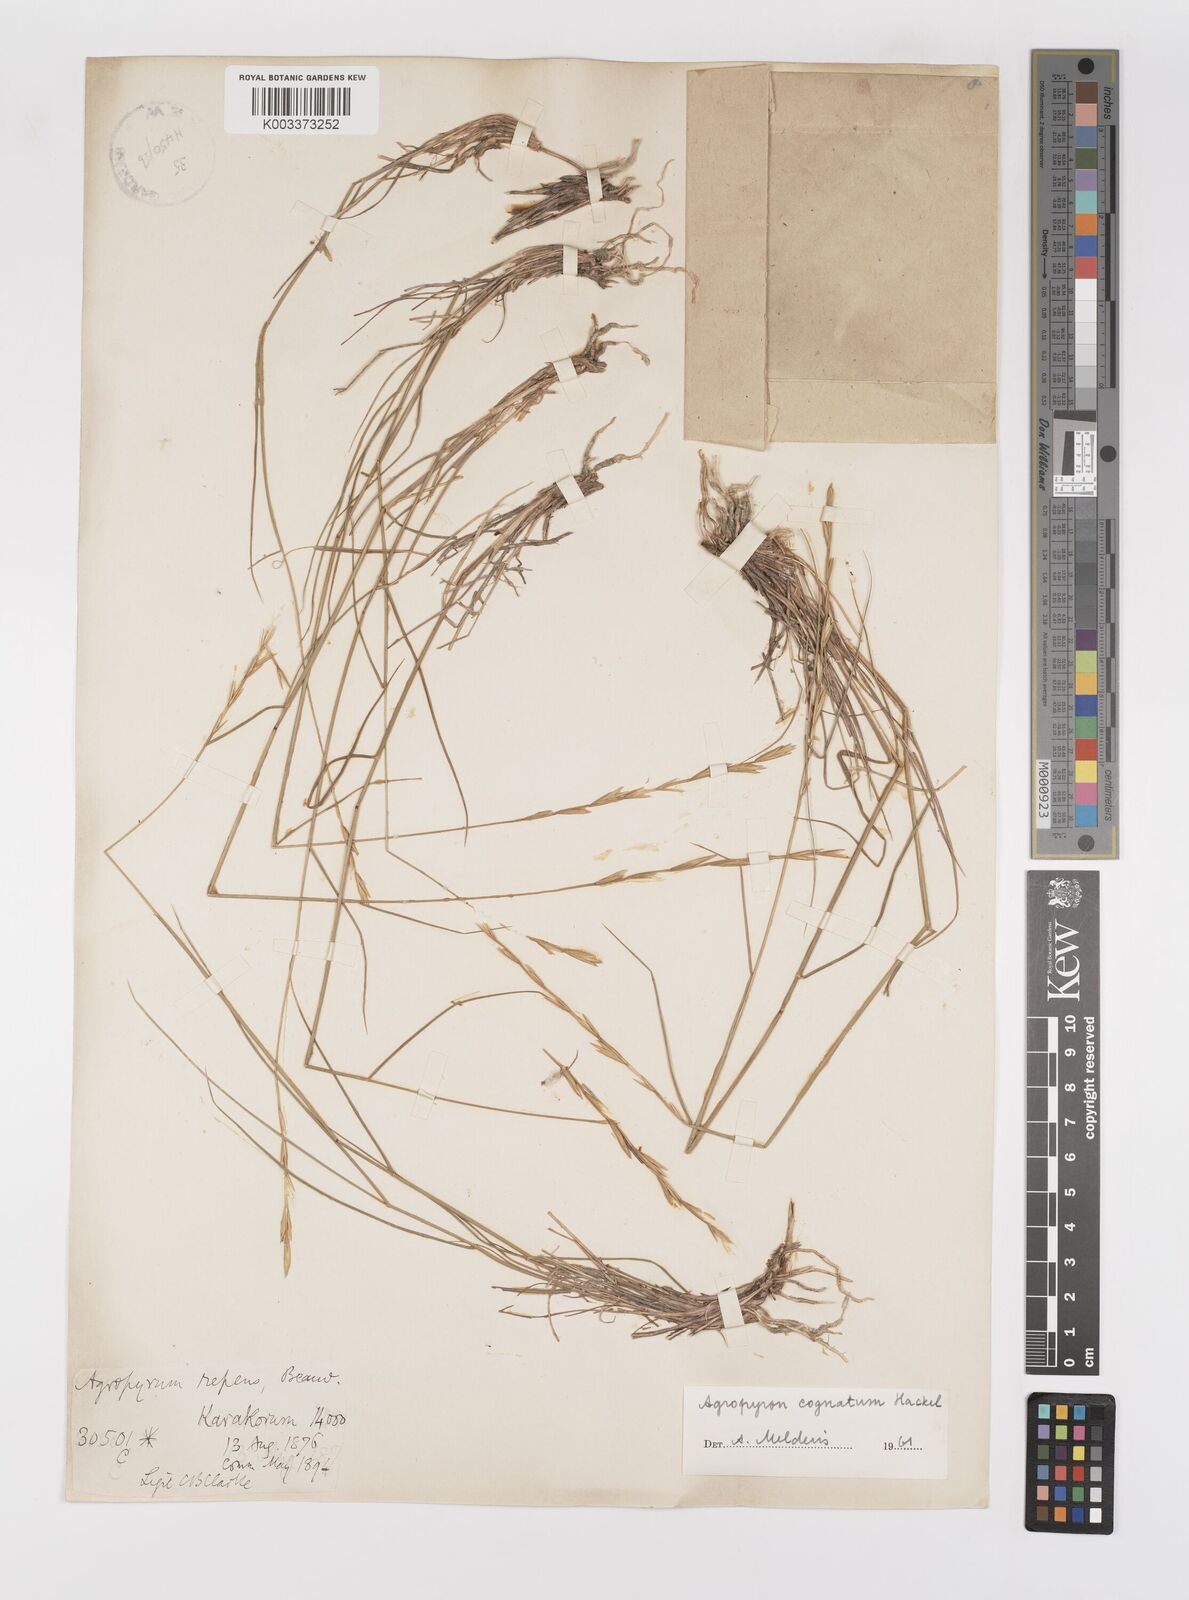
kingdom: Plantae
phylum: Tracheophyta
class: Liliopsida
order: Poales
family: Poaceae
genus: Pseudoroegneria
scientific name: Pseudoroegneria cognata
